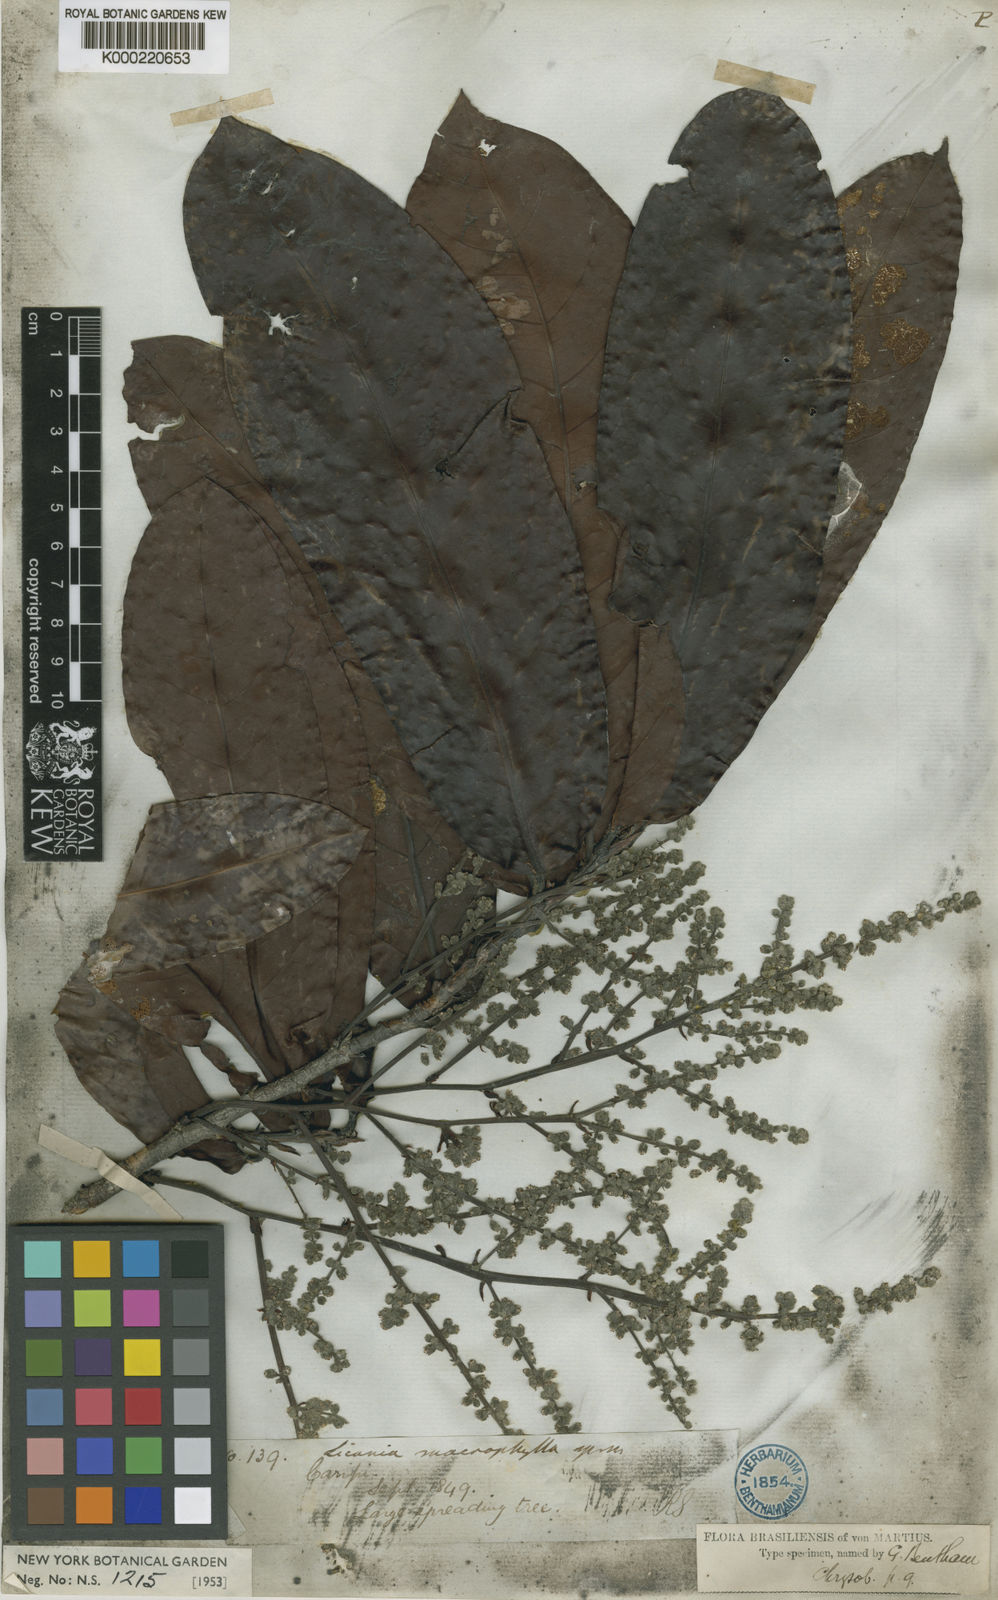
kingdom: Plantae
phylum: Tracheophyta
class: Magnoliopsida
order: Malpighiales
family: Chrysobalanaceae
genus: Hymenopus
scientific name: Hymenopus macrophyllus
